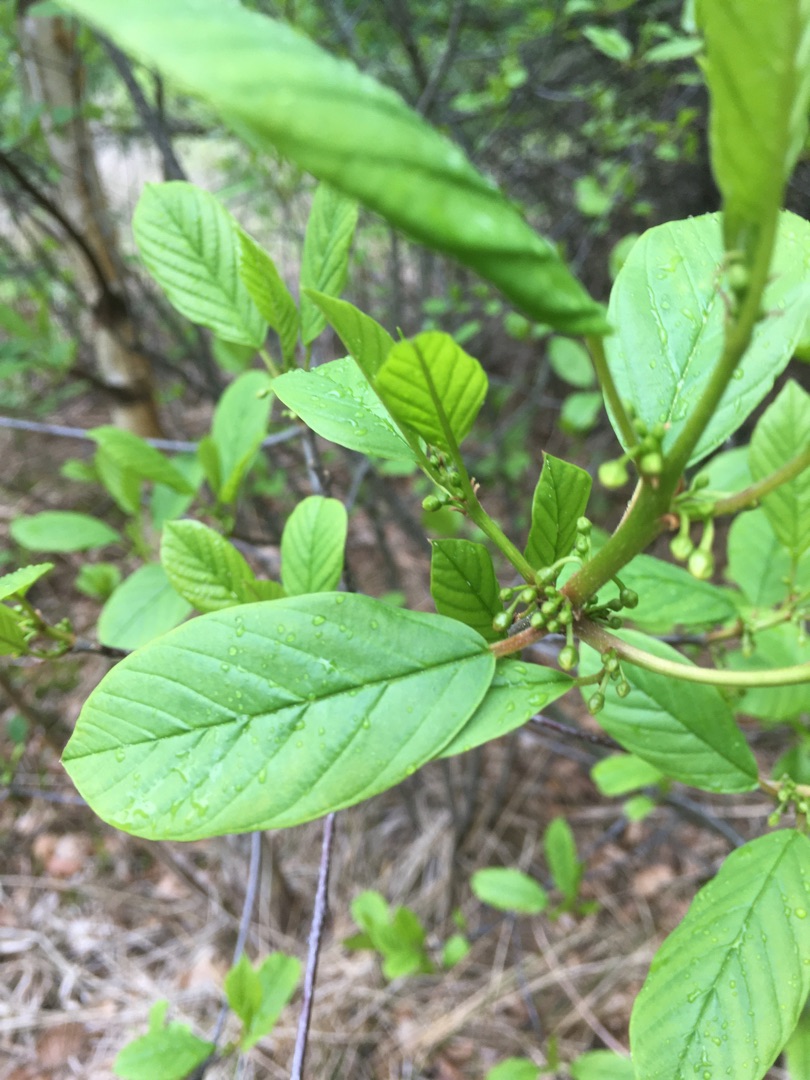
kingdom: Plantae
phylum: Tracheophyta
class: Magnoliopsida
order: Rosales
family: Rhamnaceae
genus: Frangula
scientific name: Frangula alnus
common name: Tørst
